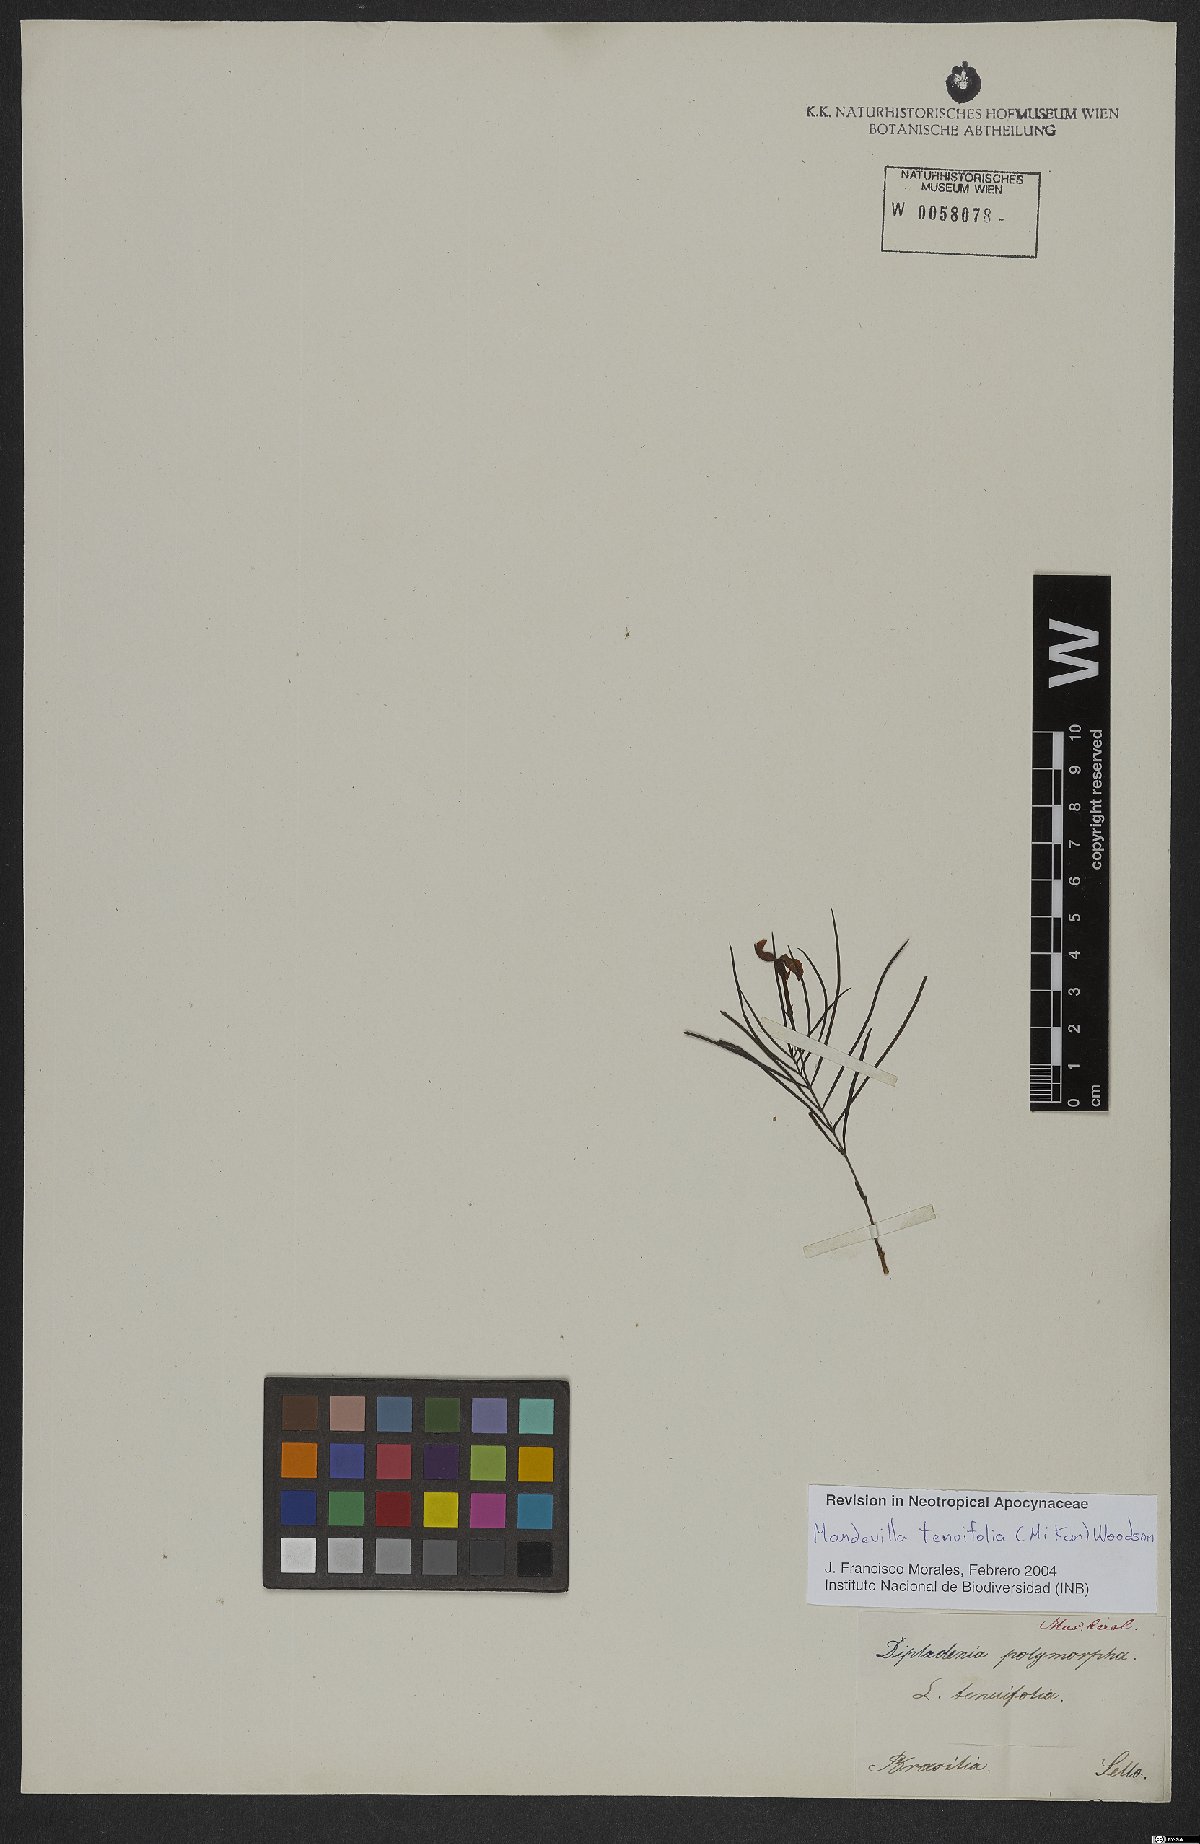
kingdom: Plantae
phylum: Tracheophyta
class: Magnoliopsida
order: Gentianales
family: Apocynaceae
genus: Mandevilla
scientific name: Mandevilla tenuifolia
